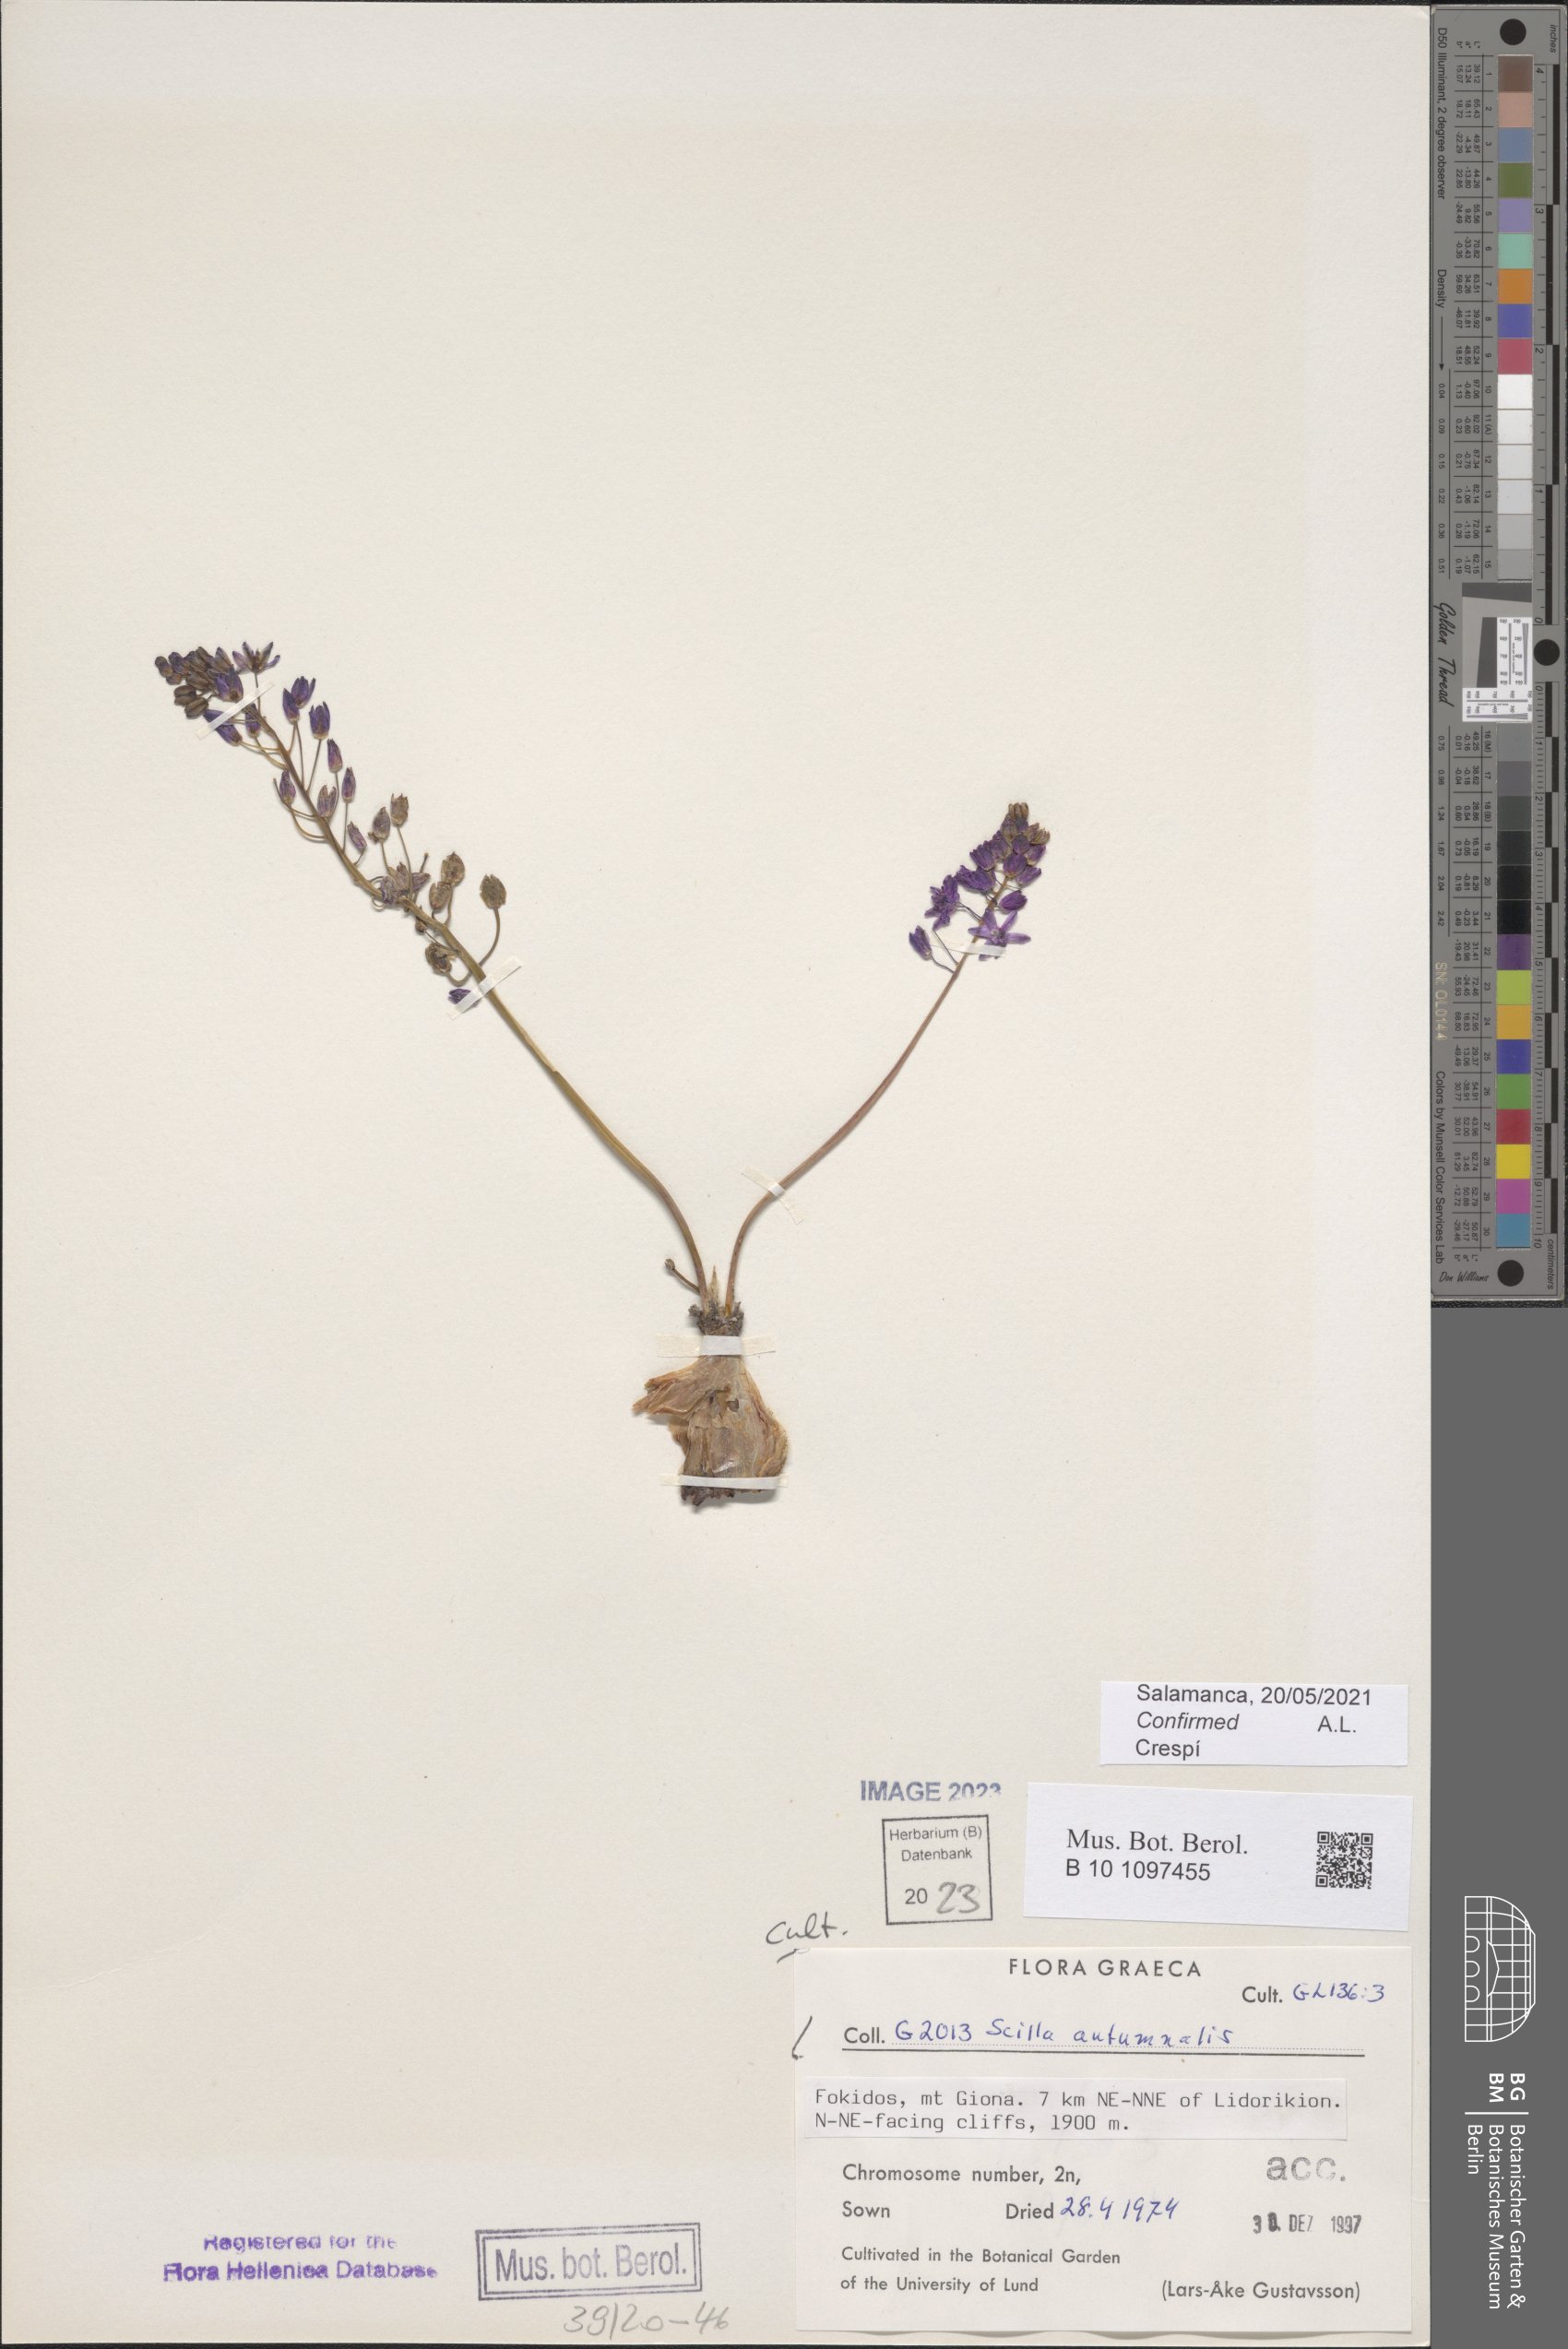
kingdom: Plantae
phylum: Tracheophyta
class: Liliopsida
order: Asparagales
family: Asparagaceae
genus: Prospero
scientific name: Prospero autumnale
